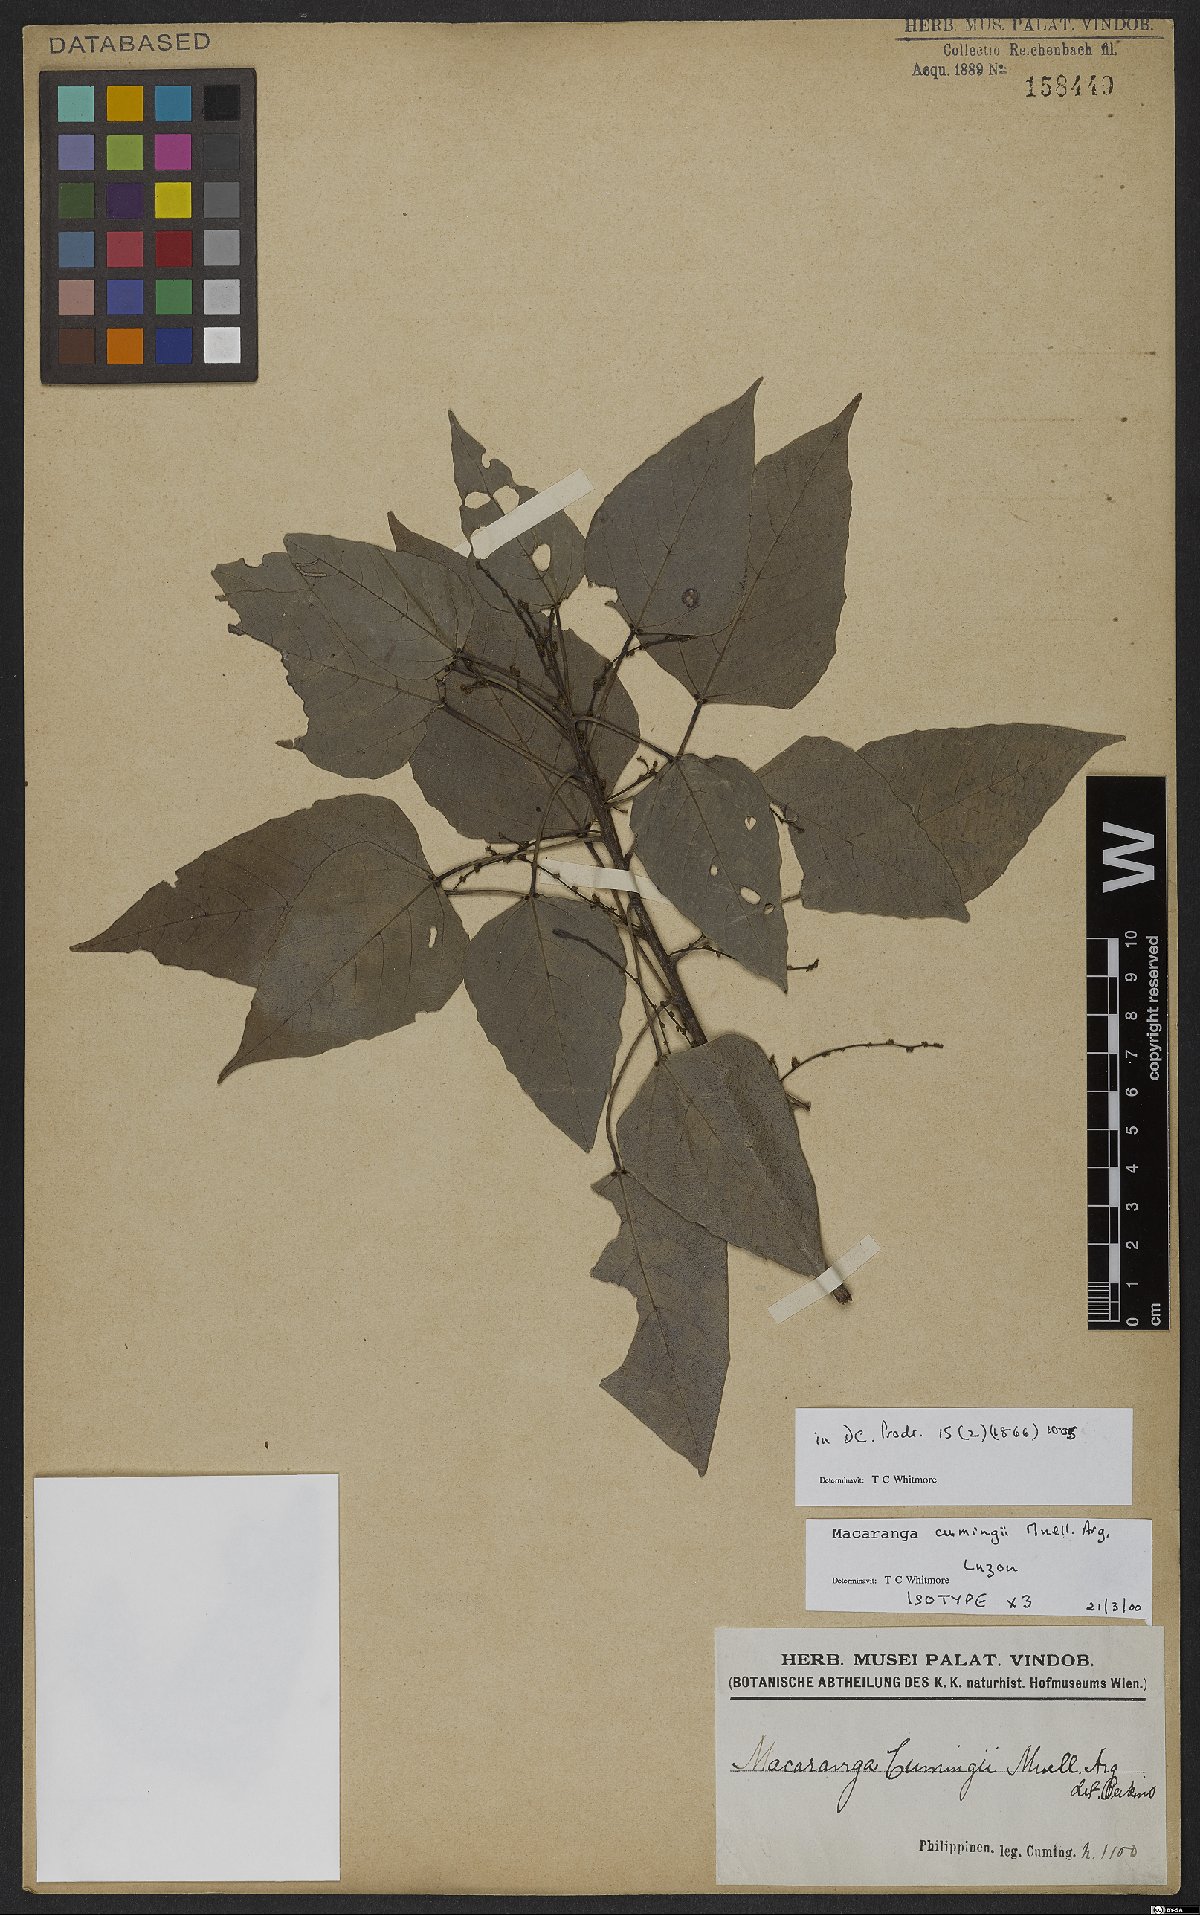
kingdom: Plantae
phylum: Tracheophyta
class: Magnoliopsida
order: Malpighiales
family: Euphorbiaceae
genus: Macaranga
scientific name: Macaranga cumingii
